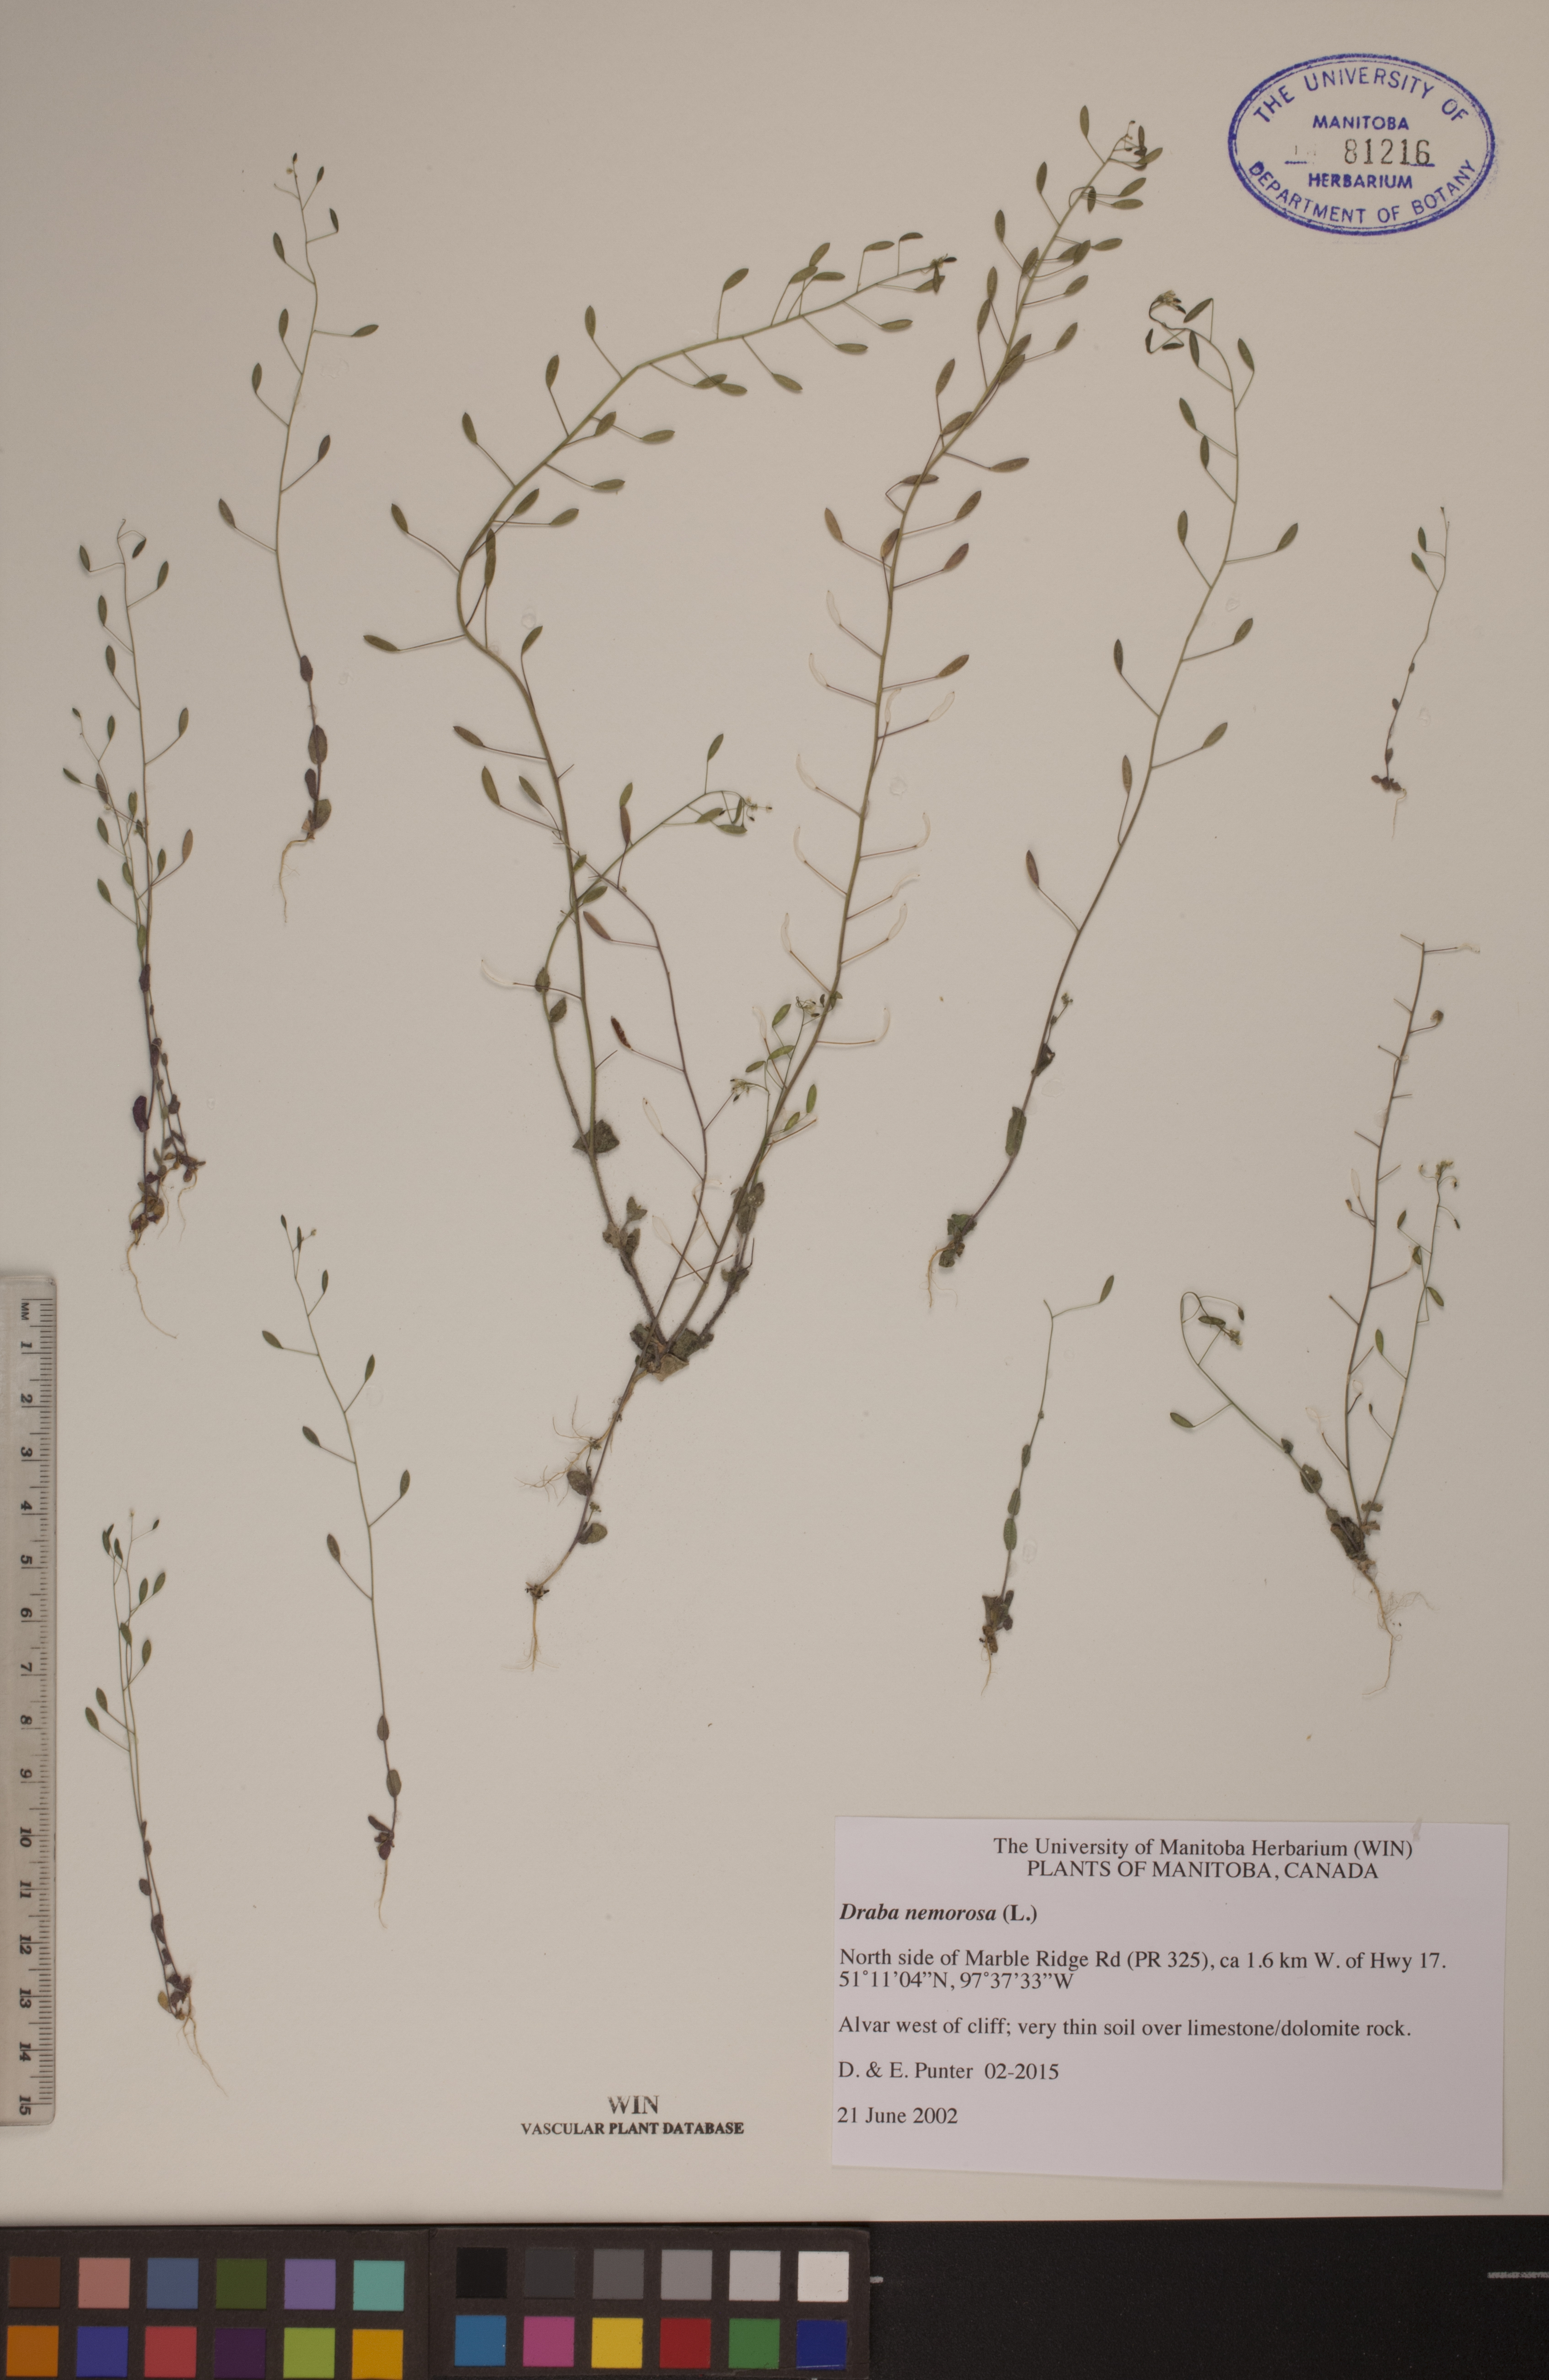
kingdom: Plantae
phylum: Tracheophyta
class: Magnoliopsida
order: Brassicales
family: Brassicaceae
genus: Draba
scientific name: Draba nemorosa
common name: Wood whitlow-grass
